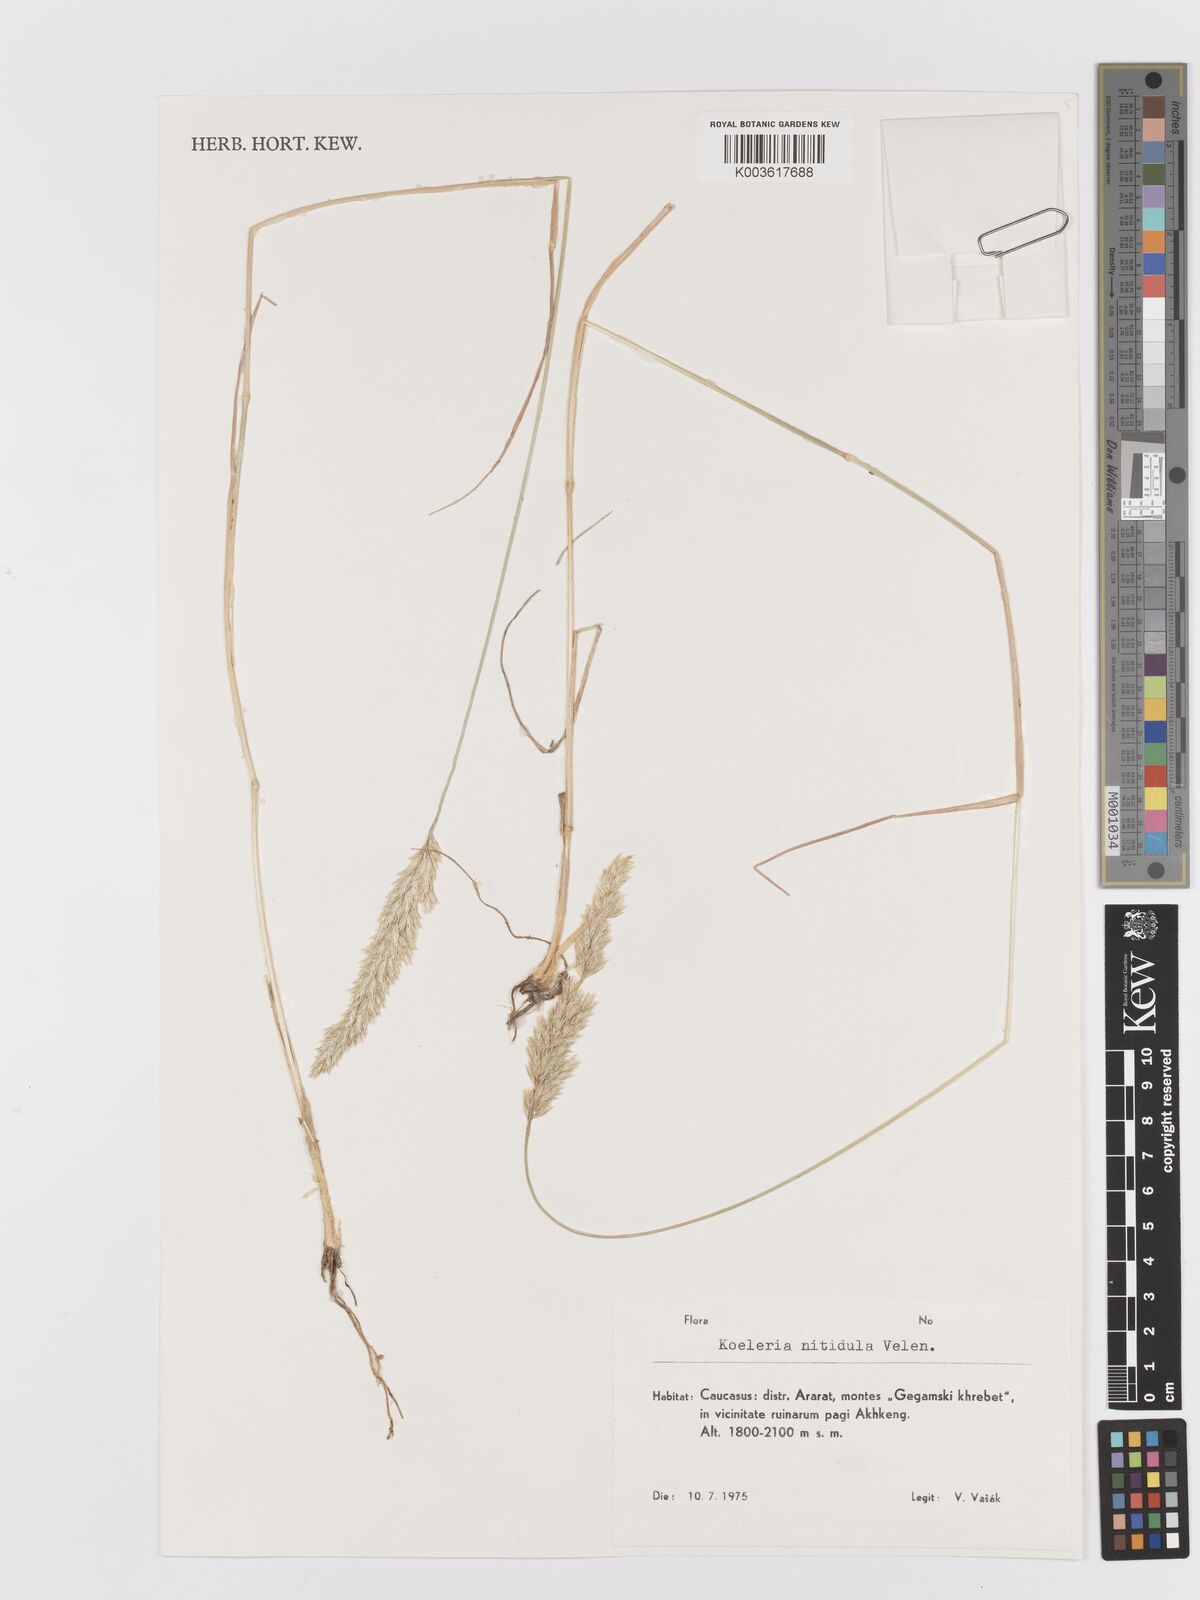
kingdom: Plantae
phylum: Tracheophyta
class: Liliopsida
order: Poales
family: Poaceae
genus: Koeleria
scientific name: Koeleria luerssenii
